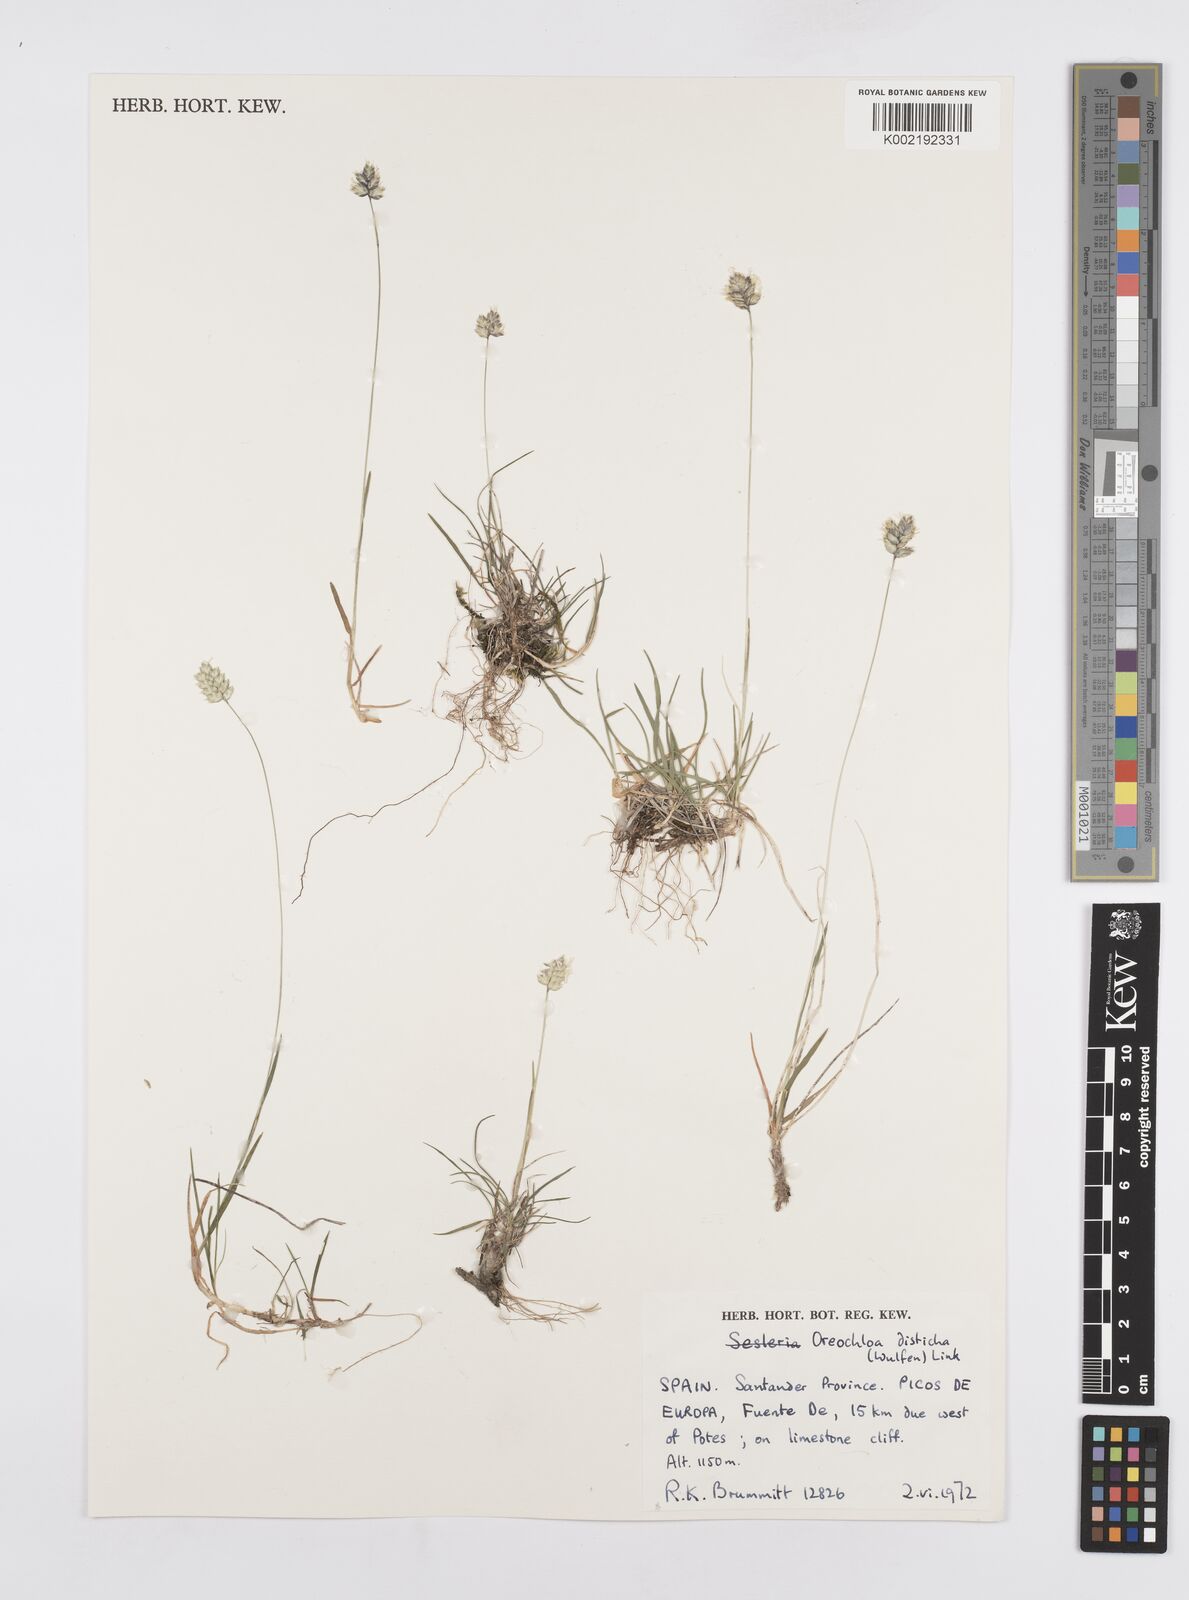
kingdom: Plantae
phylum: Tracheophyta
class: Liliopsida
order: Poales
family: Poaceae
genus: Oreochloa
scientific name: Oreochloa disticha
